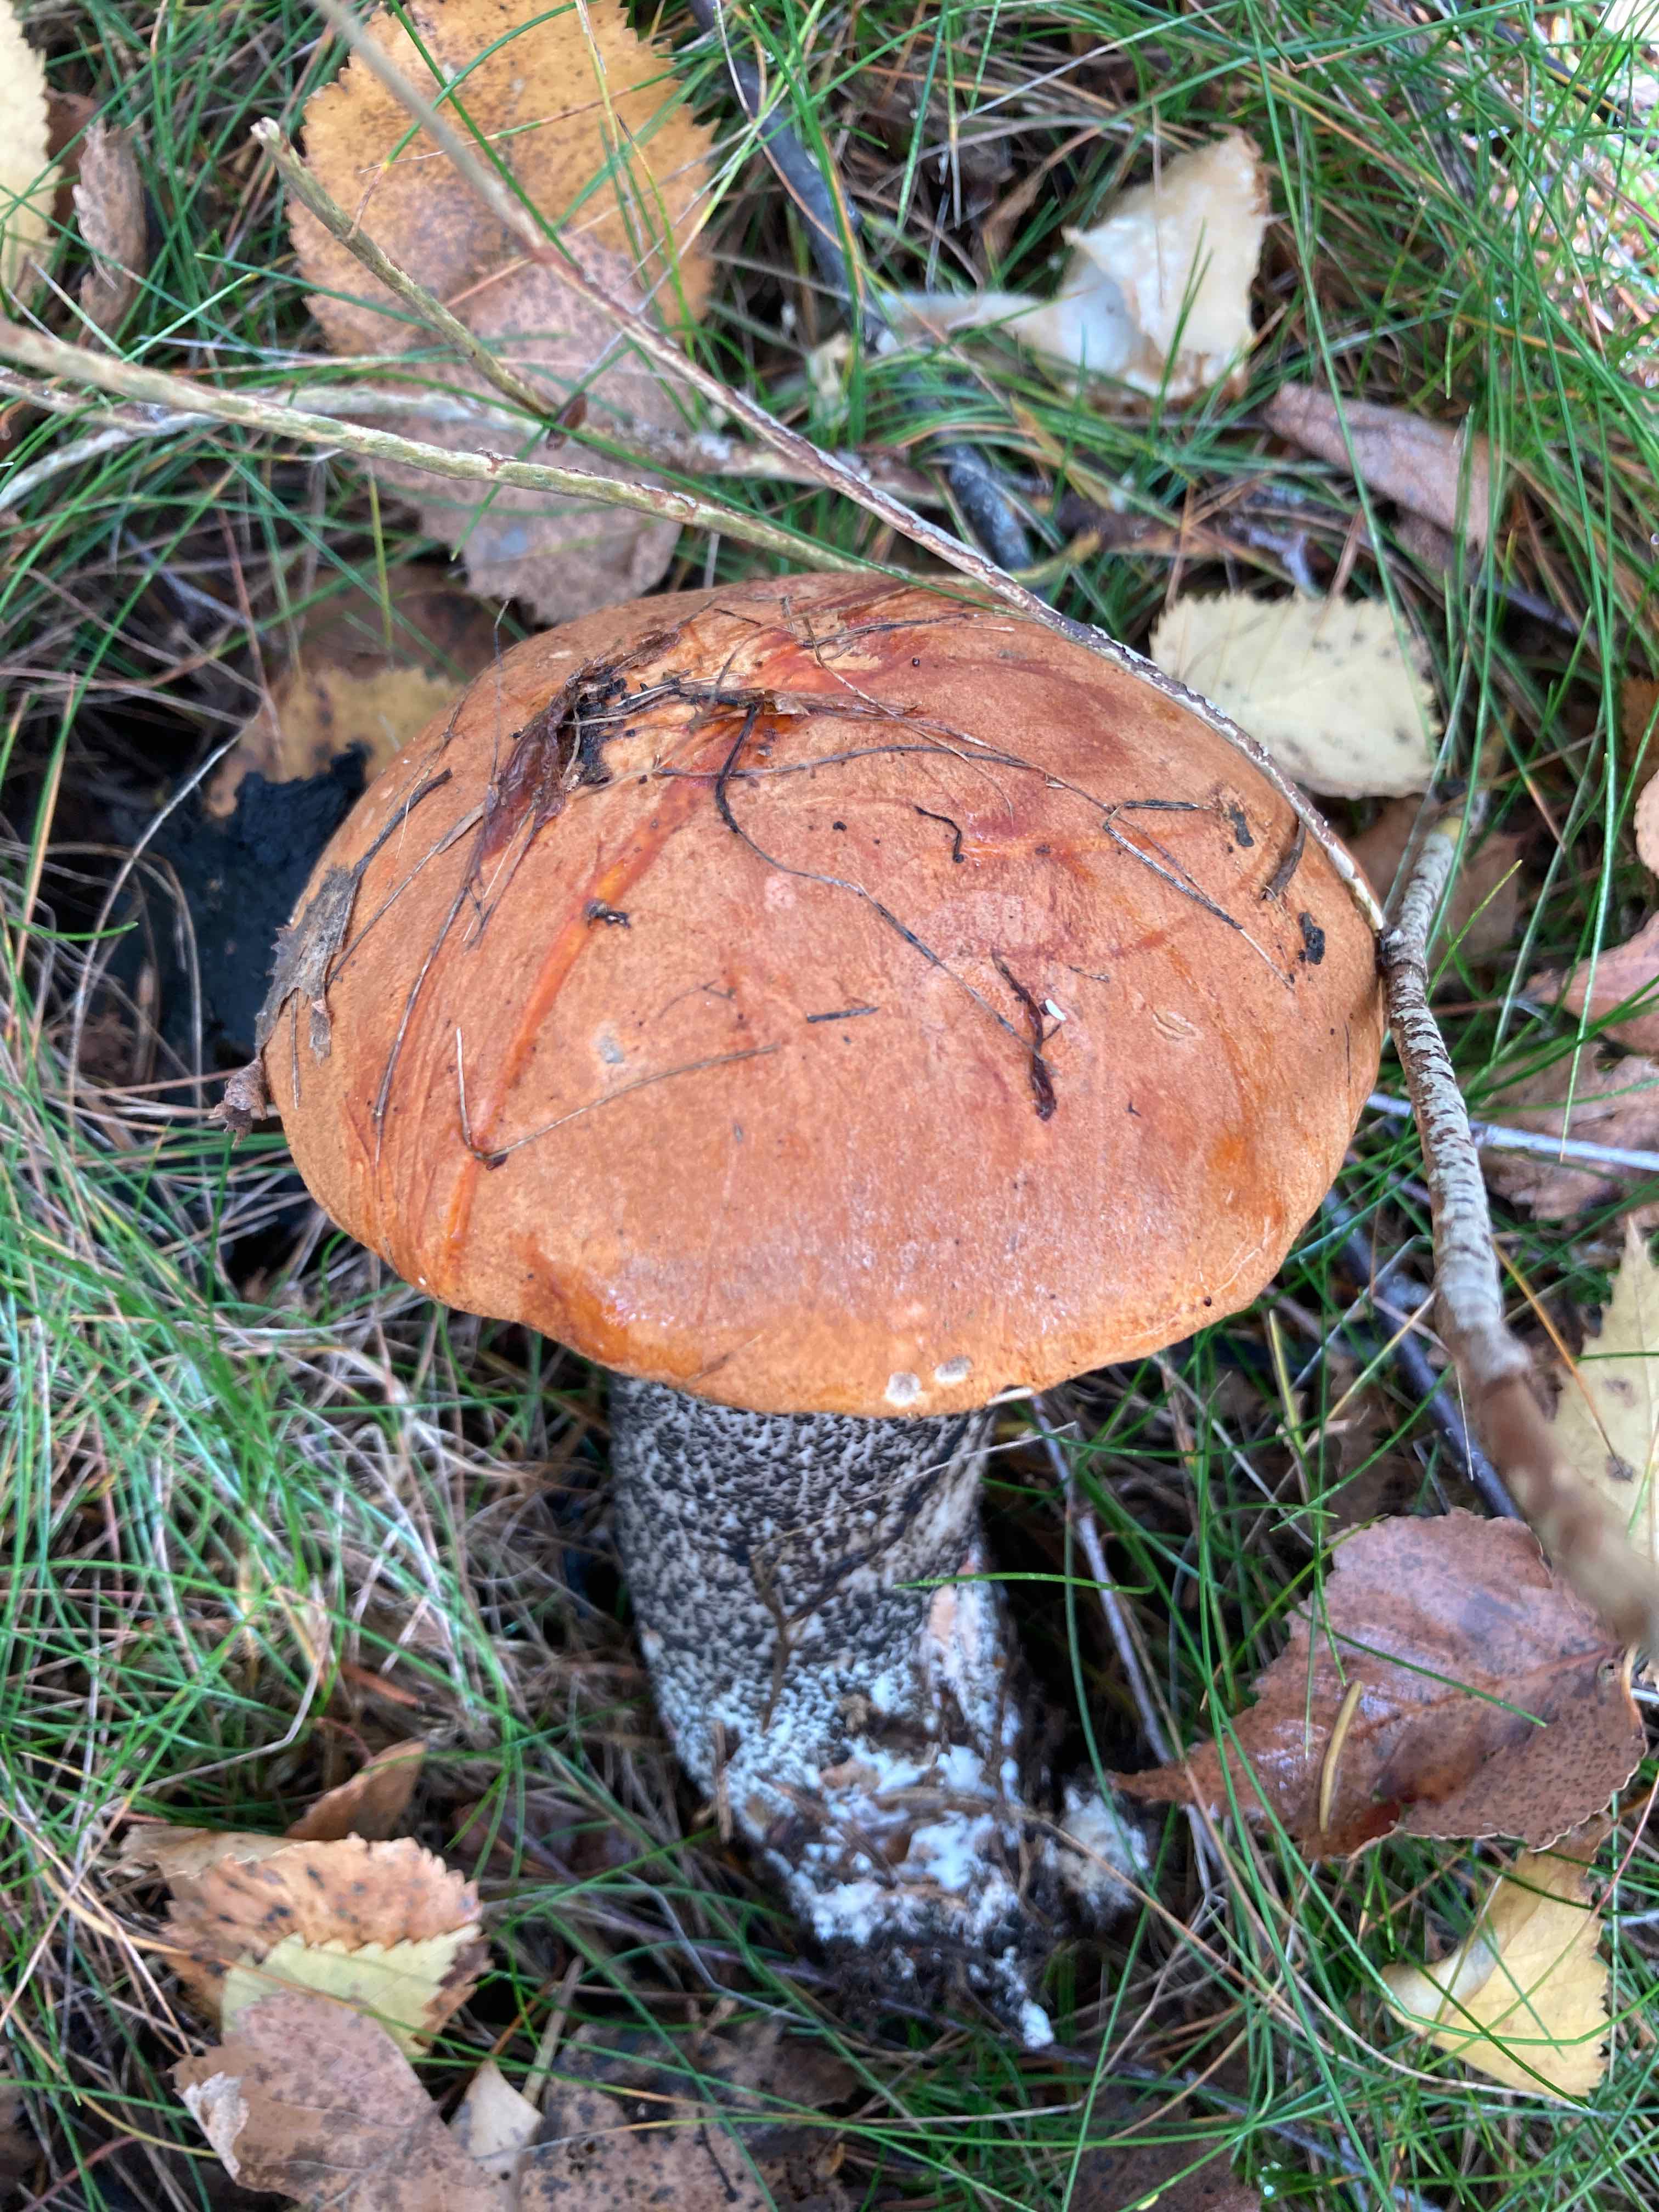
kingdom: Fungi
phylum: Basidiomycota
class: Agaricomycetes
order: Boletales
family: Boletaceae
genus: Leccinum
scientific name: Leccinum versipelle
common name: orange skælrørhat
